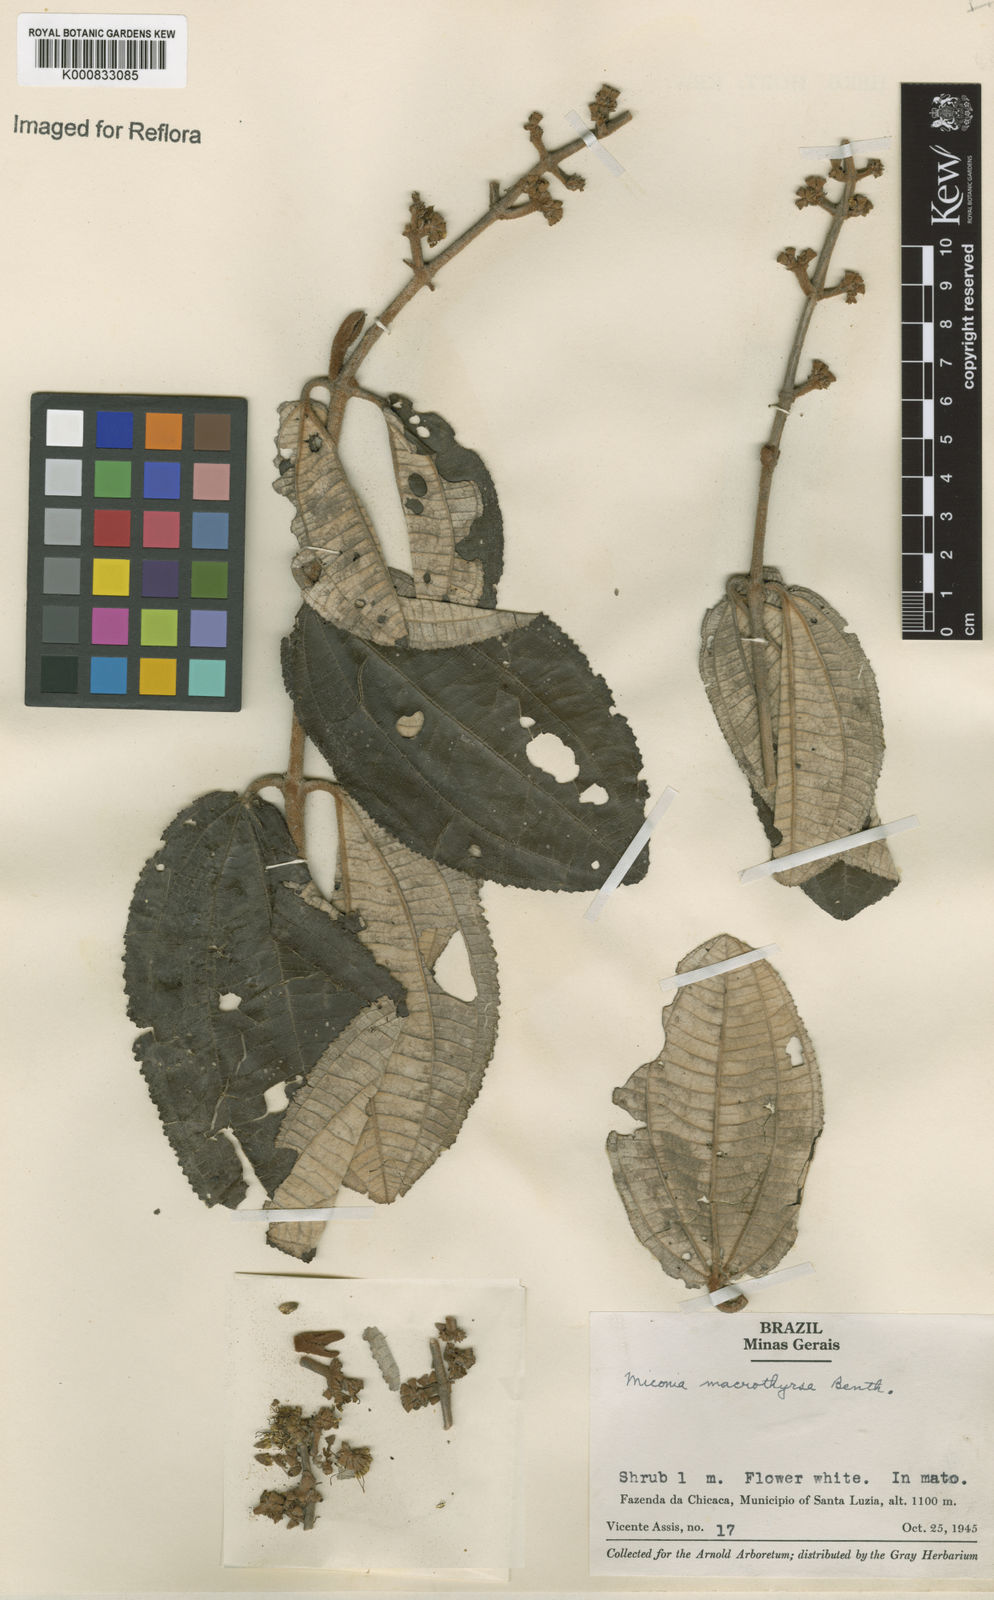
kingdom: Plantae
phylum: Tracheophyta
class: Magnoliopsida
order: Myrtales
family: Melastomataceae
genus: Miconia
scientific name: Miconia macrothyrsa
